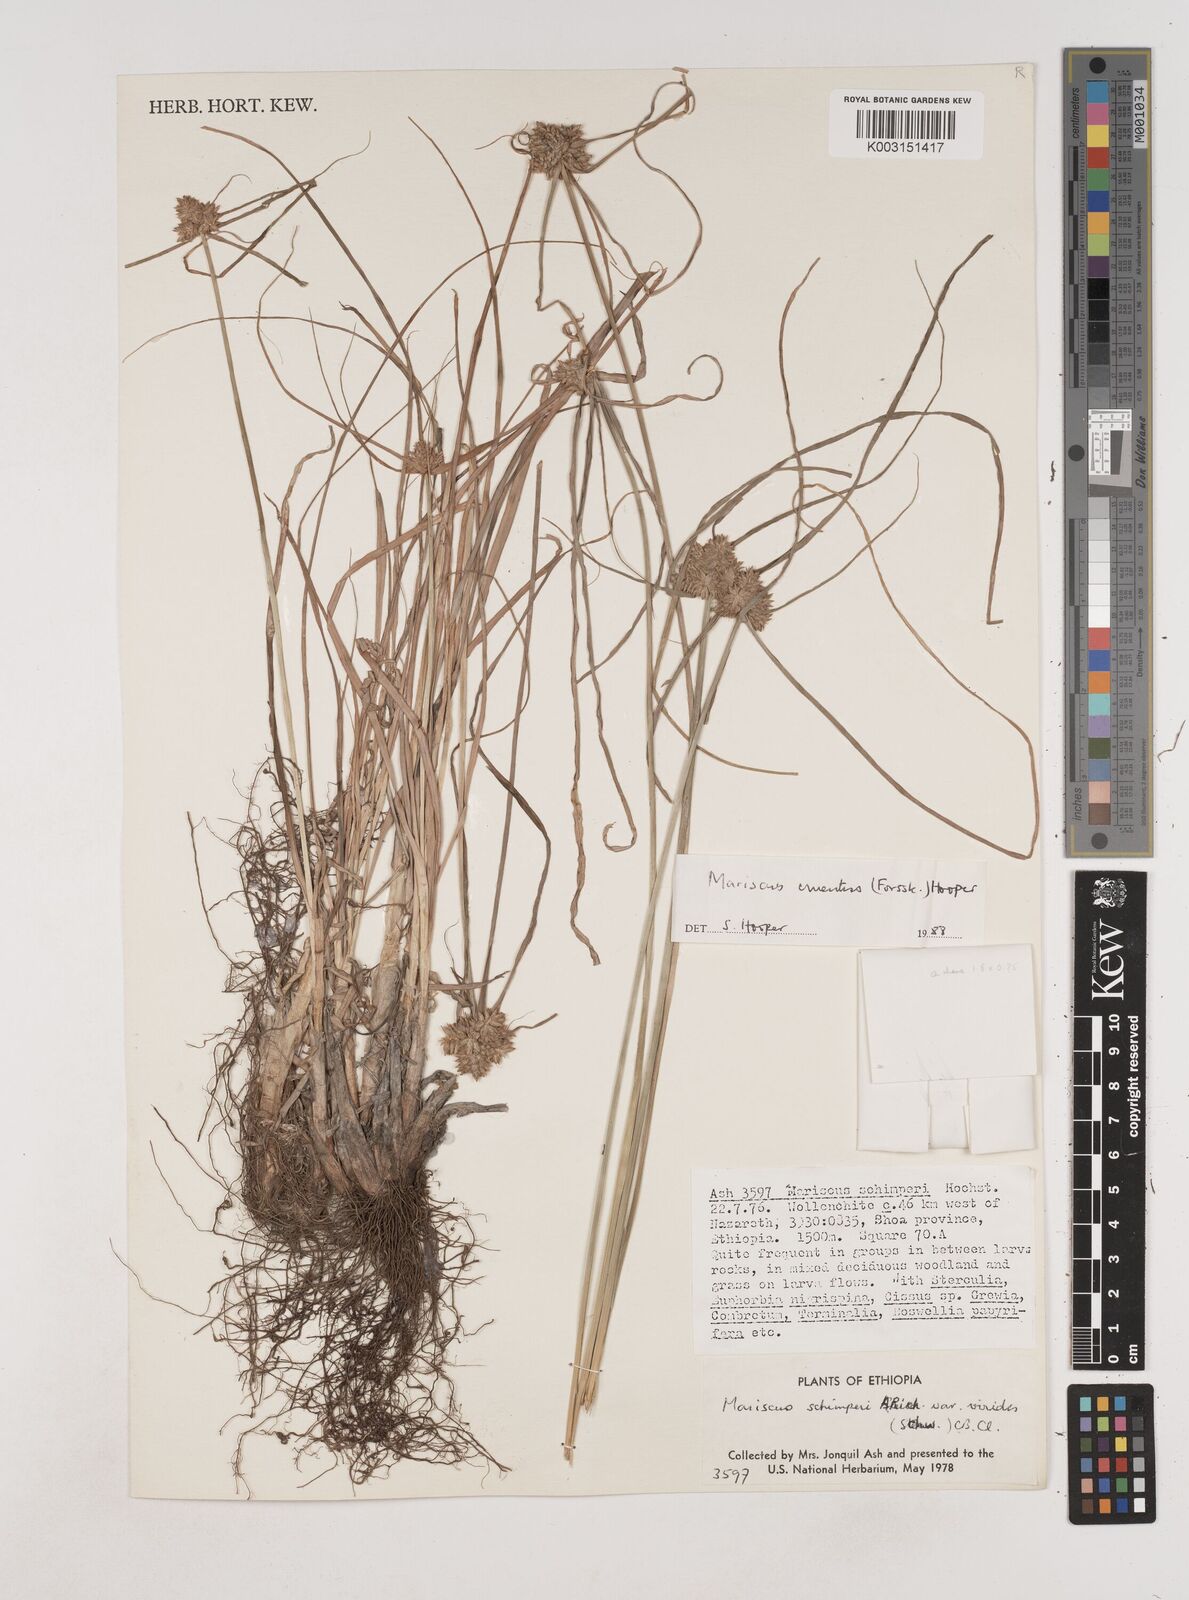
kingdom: Plantae
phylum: Tracheophyta
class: Liliopsida
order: Poales
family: Cyperaceae
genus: Cyperus
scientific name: Cyperus cruentus
